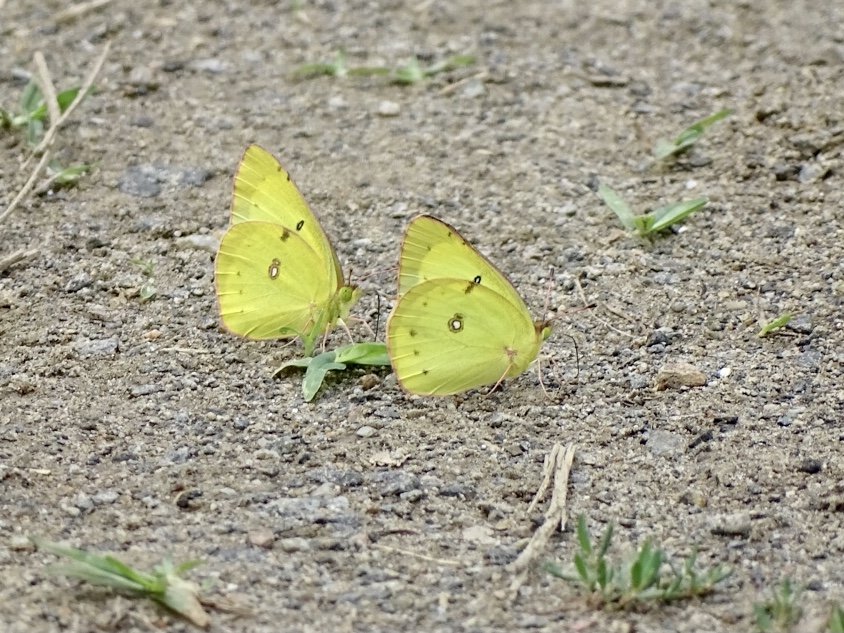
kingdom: Animalia
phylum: Arthropoda
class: Insecta
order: Lepidoptera
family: Pieridae
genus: Colias
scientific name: Colias philodice
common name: Clouded Sulphur
